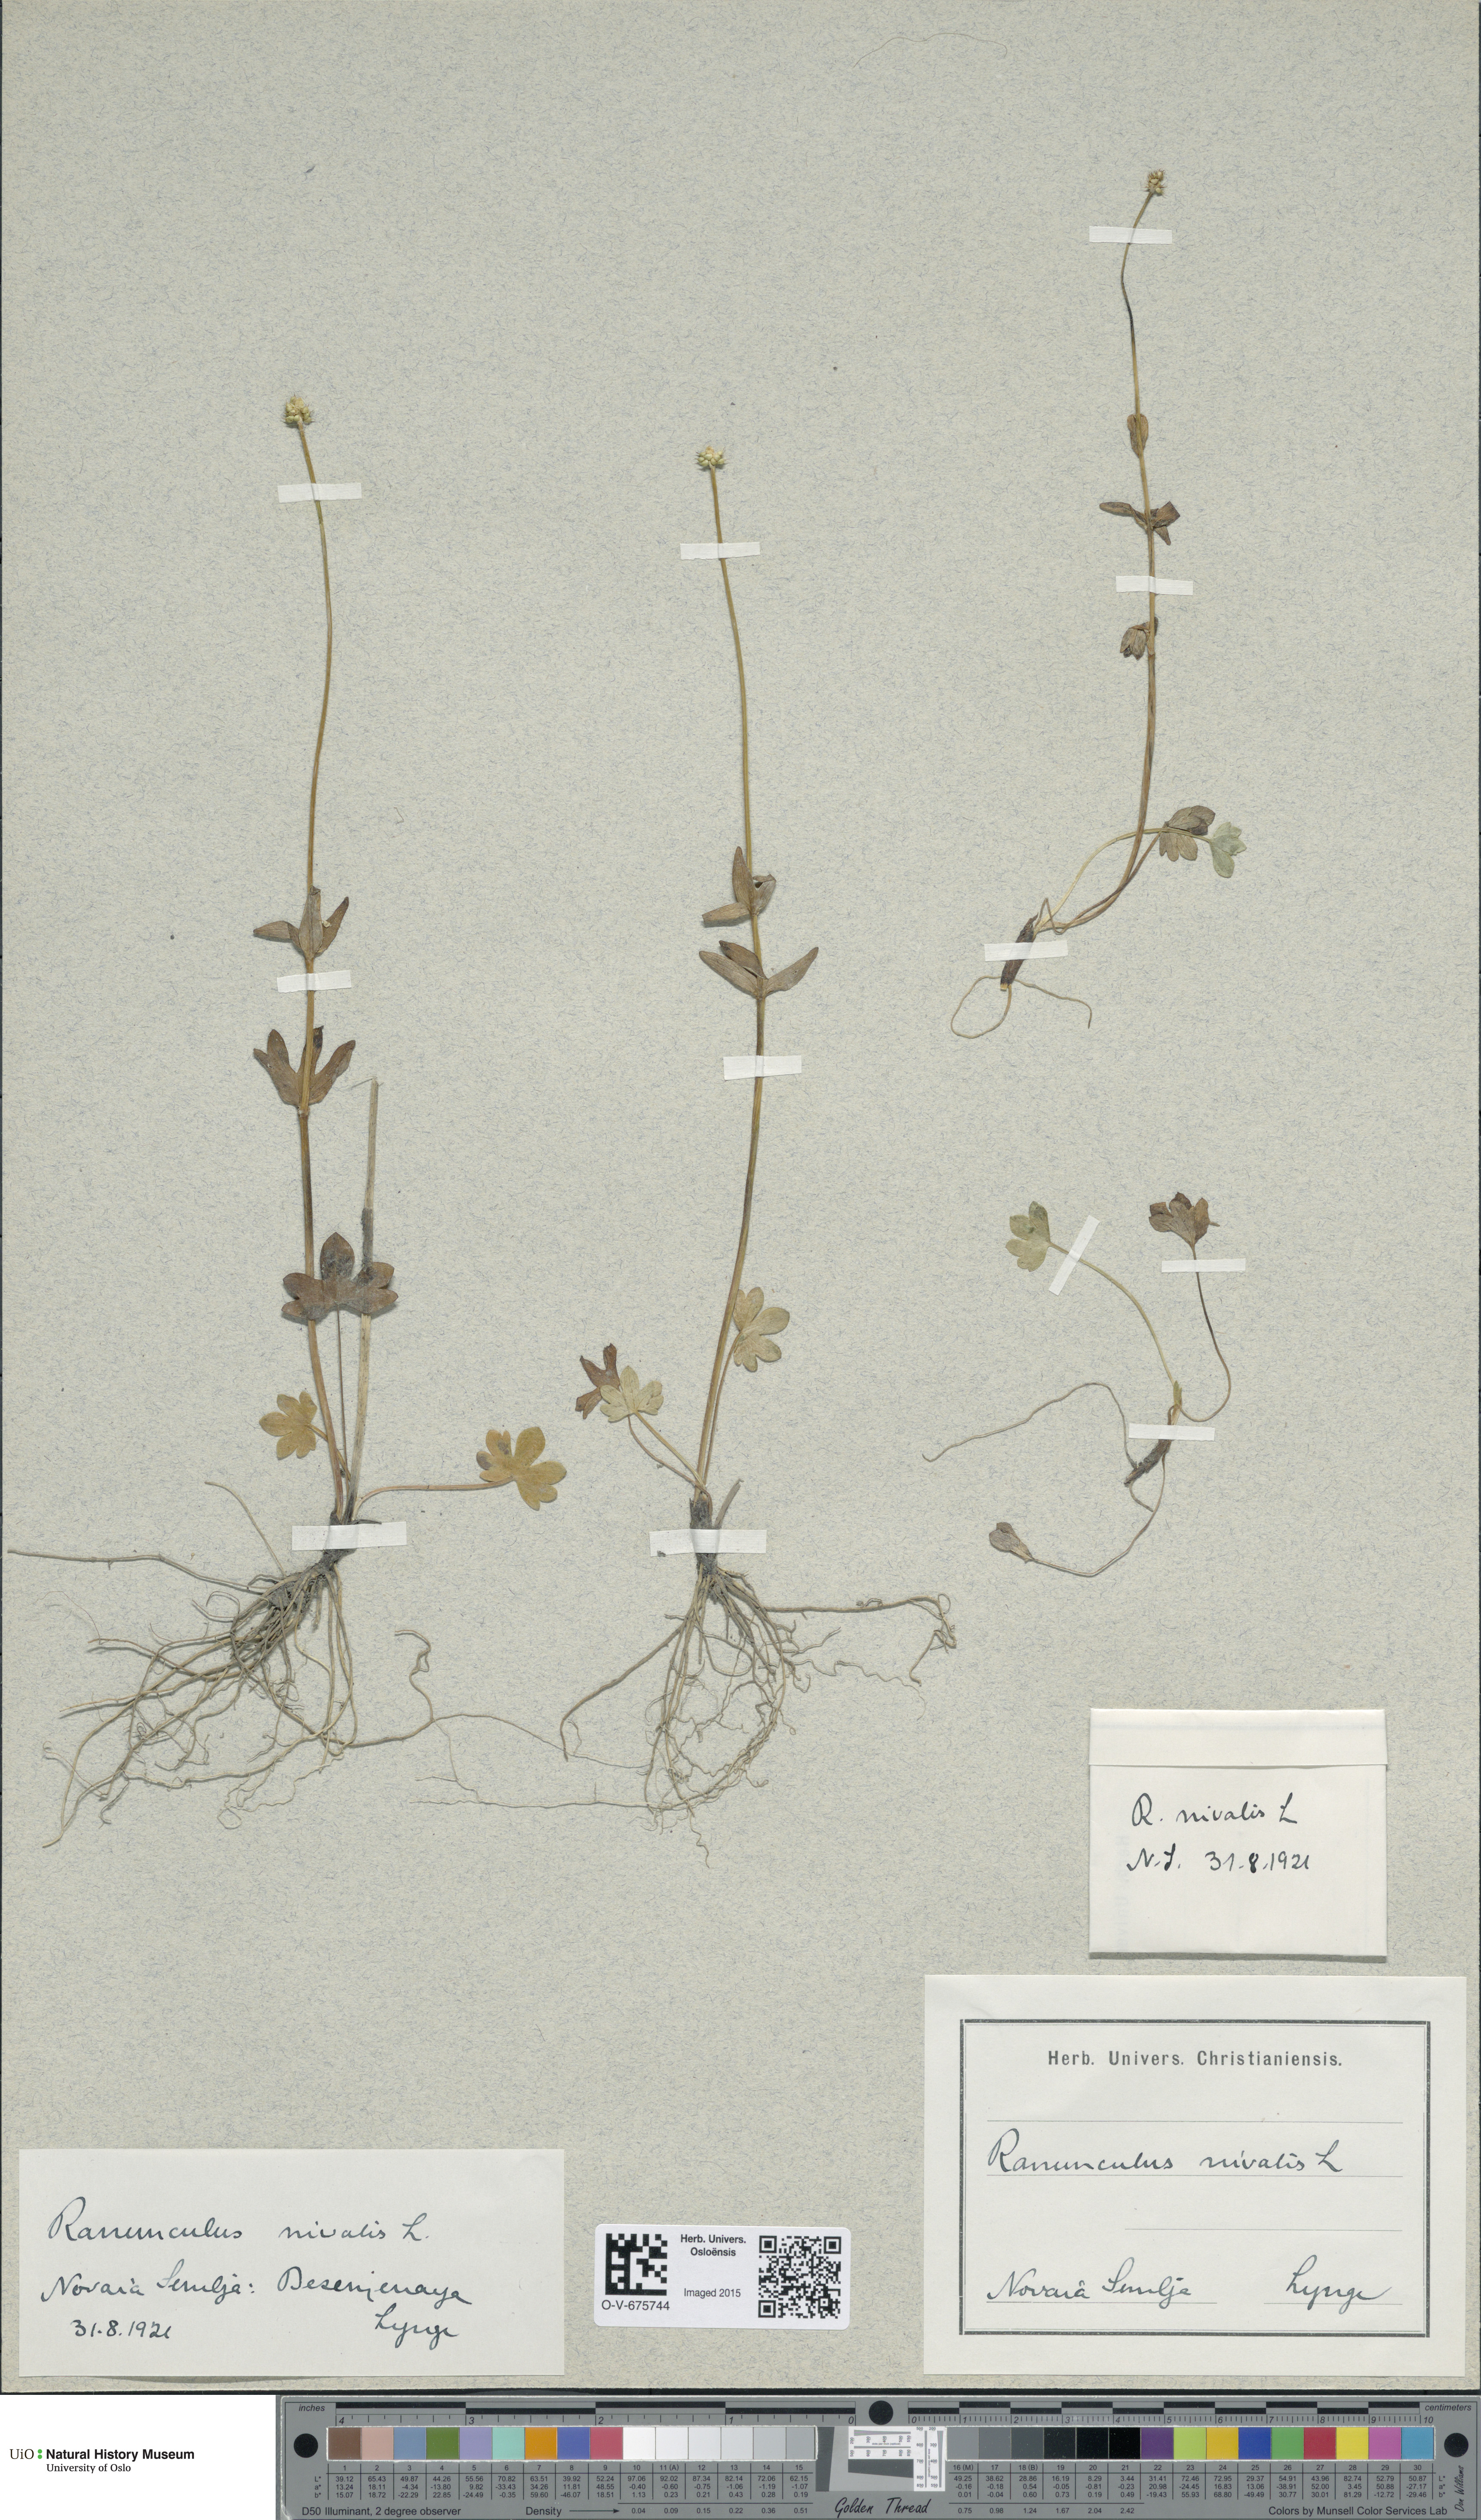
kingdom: Plantae
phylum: Tracheophyta
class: Magnoliopsida
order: Ranunculales
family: Ranunculaceae
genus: Ranunculus
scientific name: Ranunculus nivalis
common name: Snow buttercup
